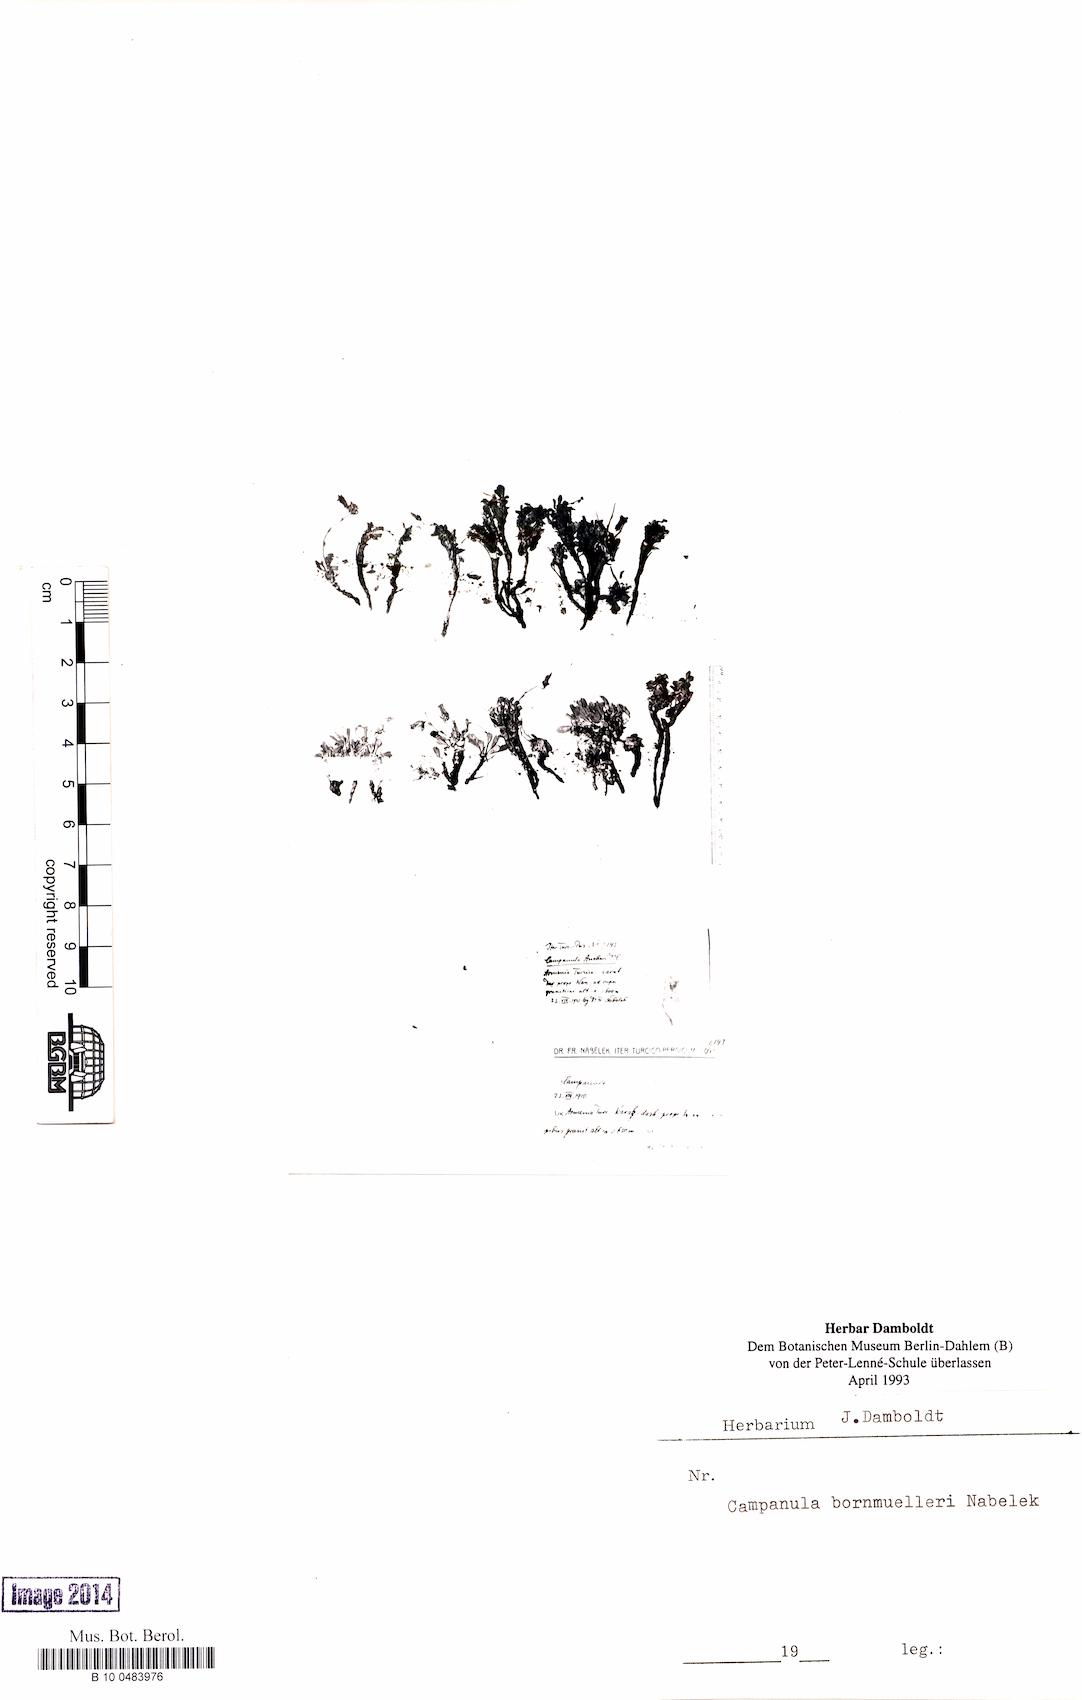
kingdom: Plantae
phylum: Tracheophyta
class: Magnoliopsida
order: Asterales
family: Campanulaceae
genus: Campanula
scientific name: Campanula bornmuelleri
